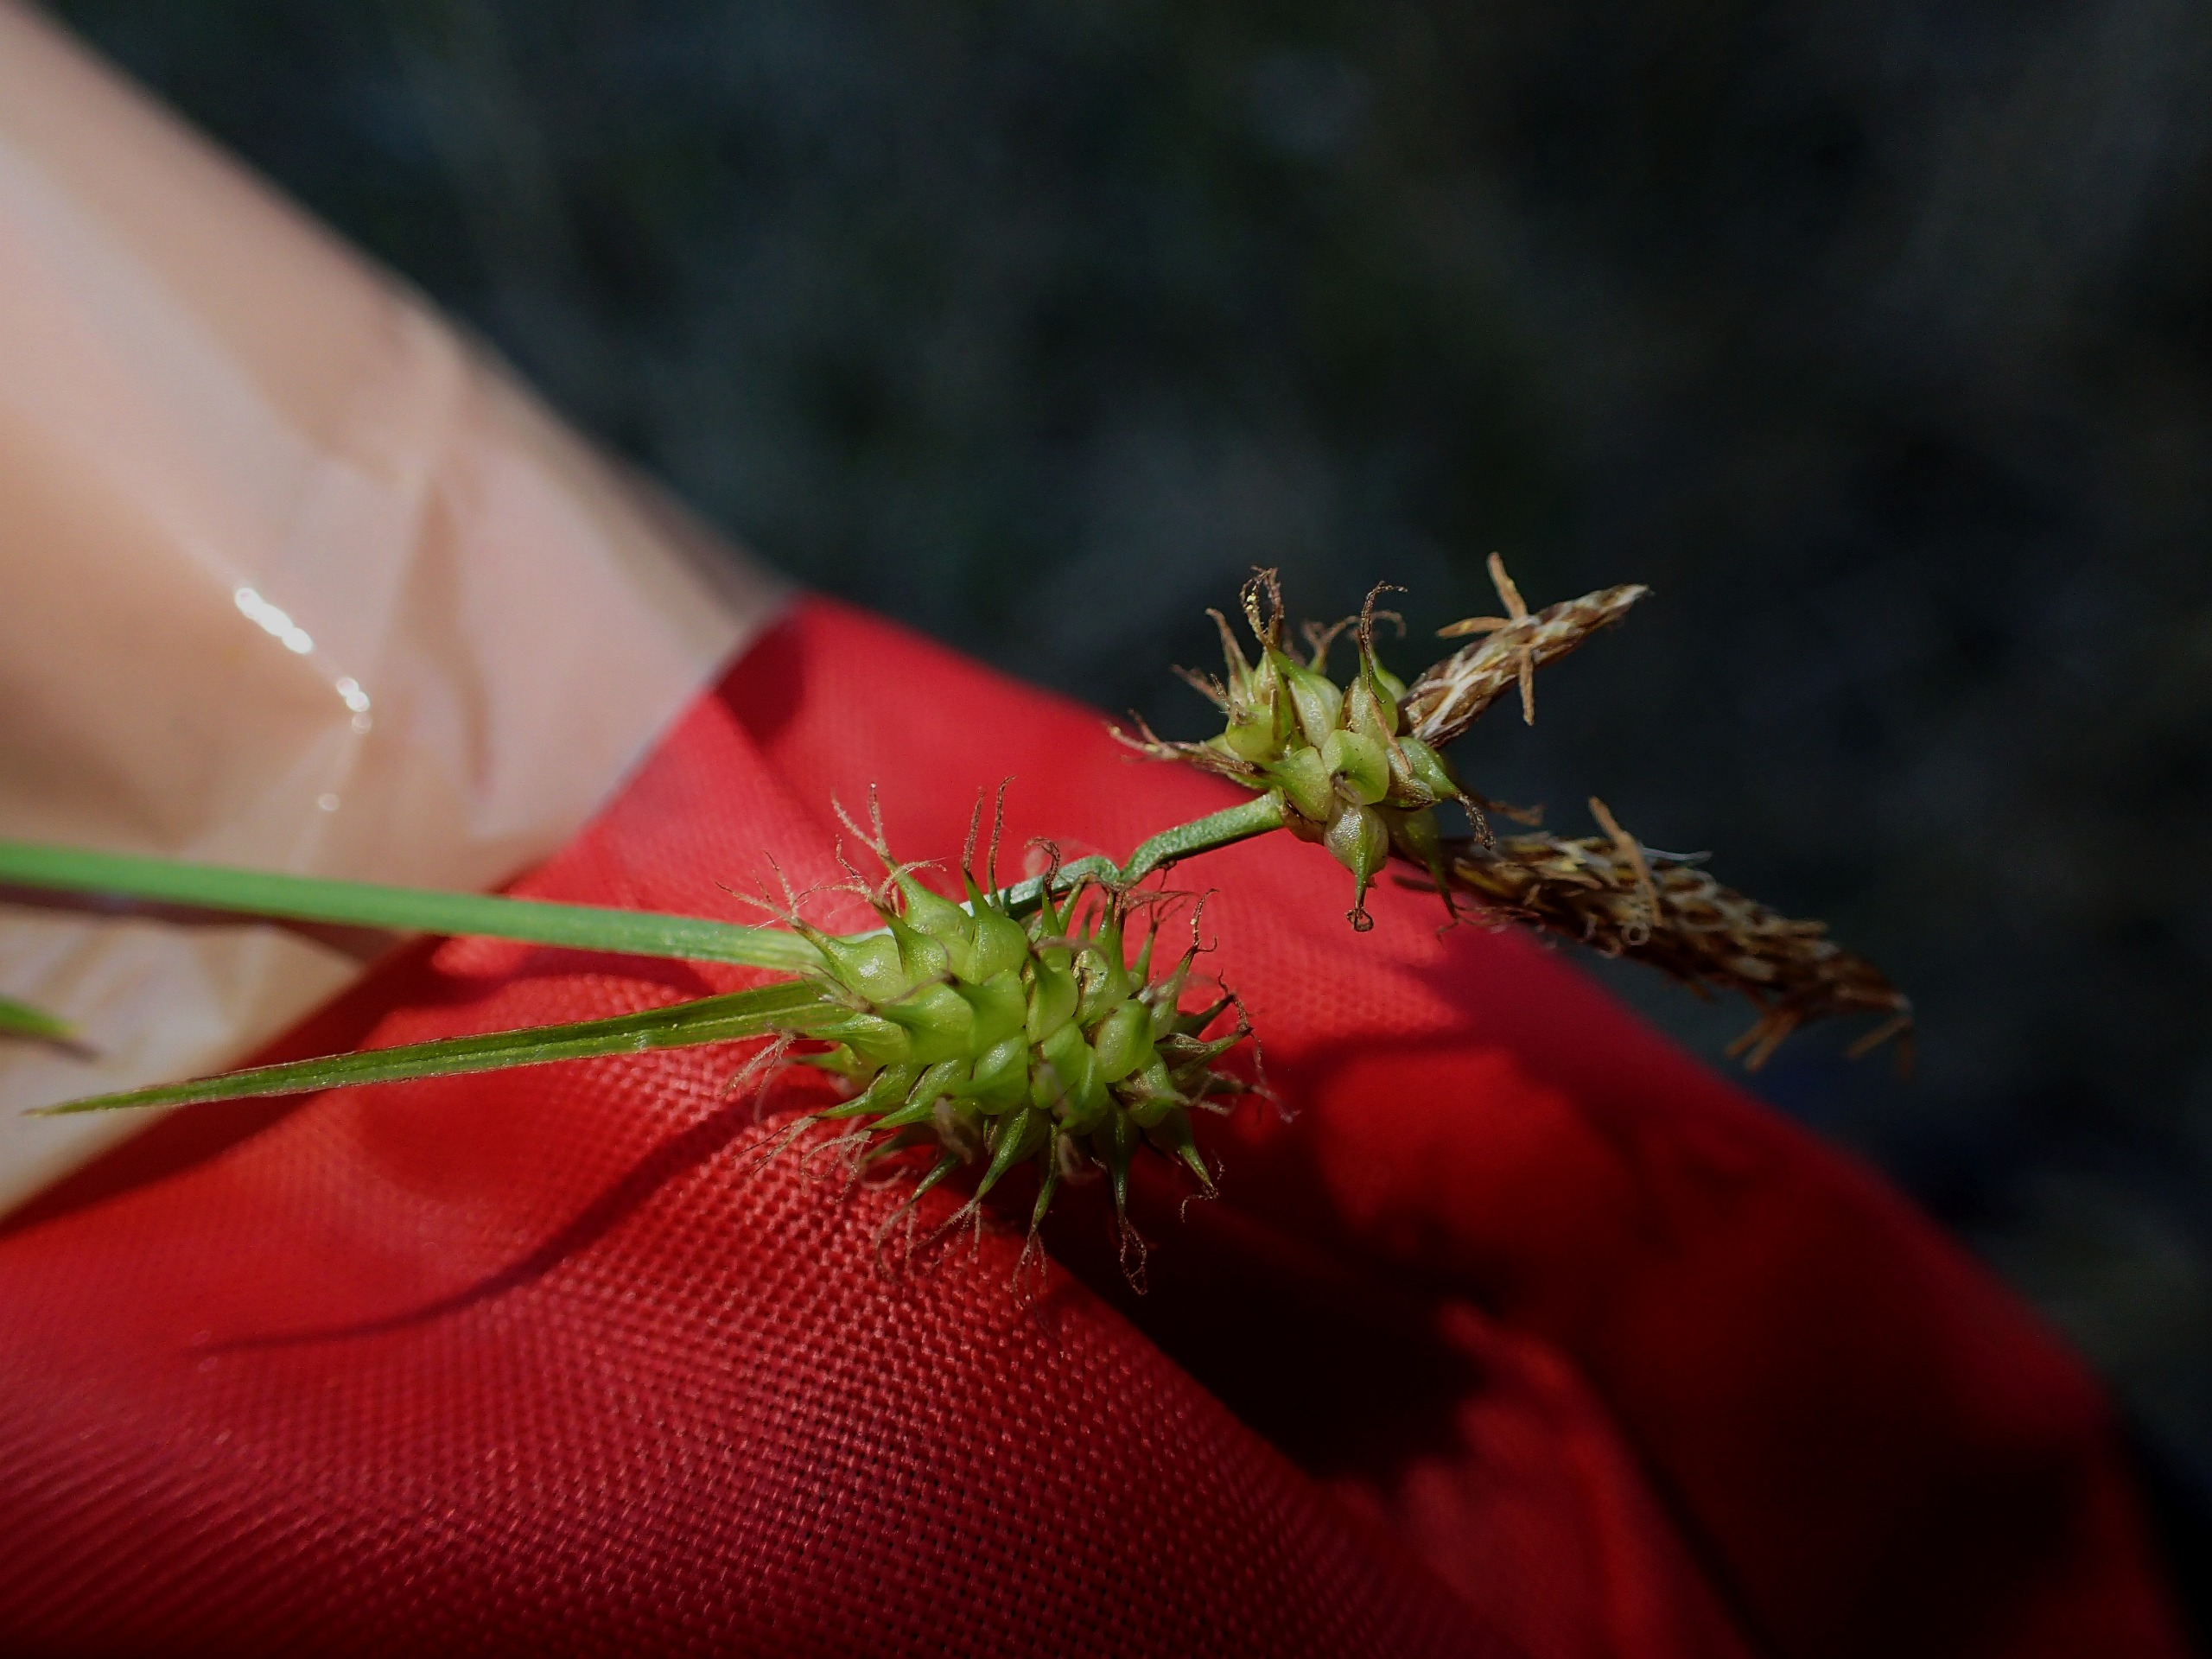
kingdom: Plantae
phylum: Tracheophyta
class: Liliopsida
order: Poales
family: Cyperaceae
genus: Carex
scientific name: Carex lepidocarpa
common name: Krognæb-star
